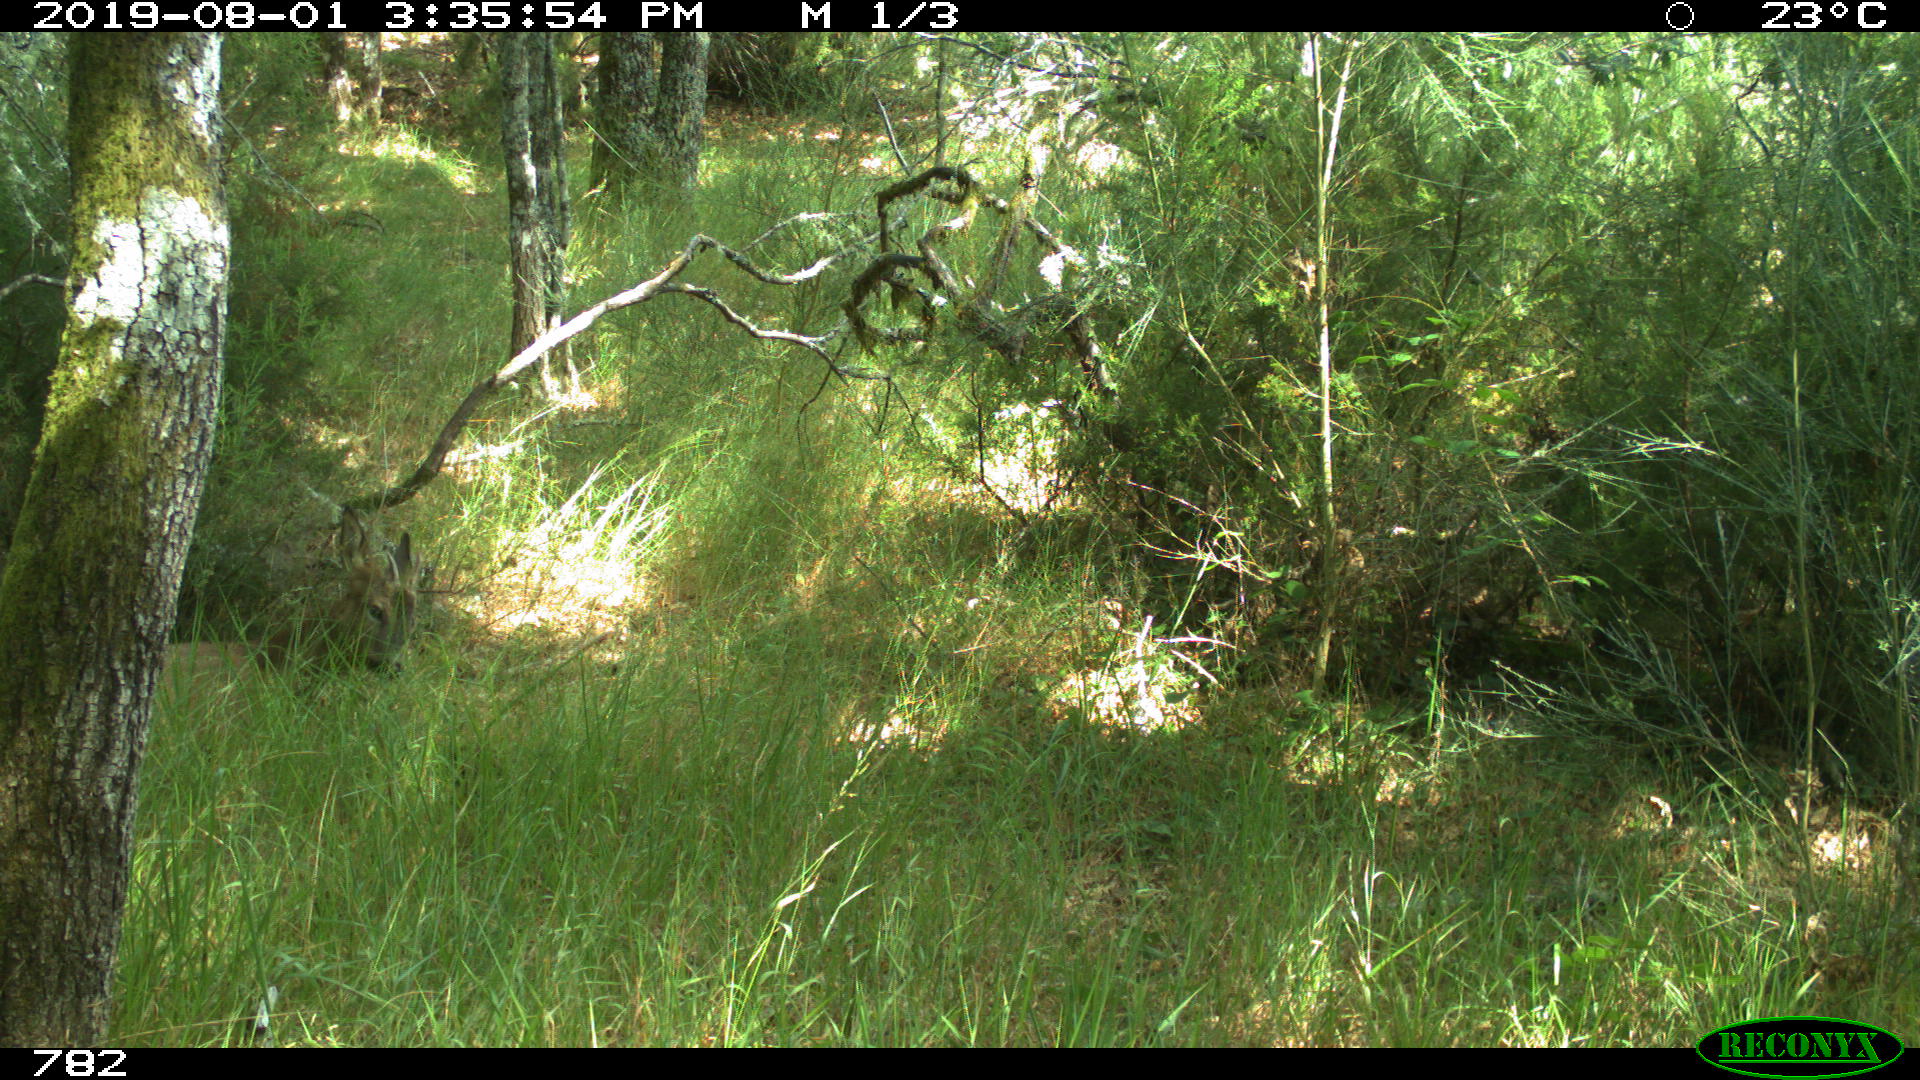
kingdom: Animalia
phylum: Chordata
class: Mammalia
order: Artiodactyla
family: Cervidae
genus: Capreolus
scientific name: Capreolus capreolus
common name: Western roe deer
